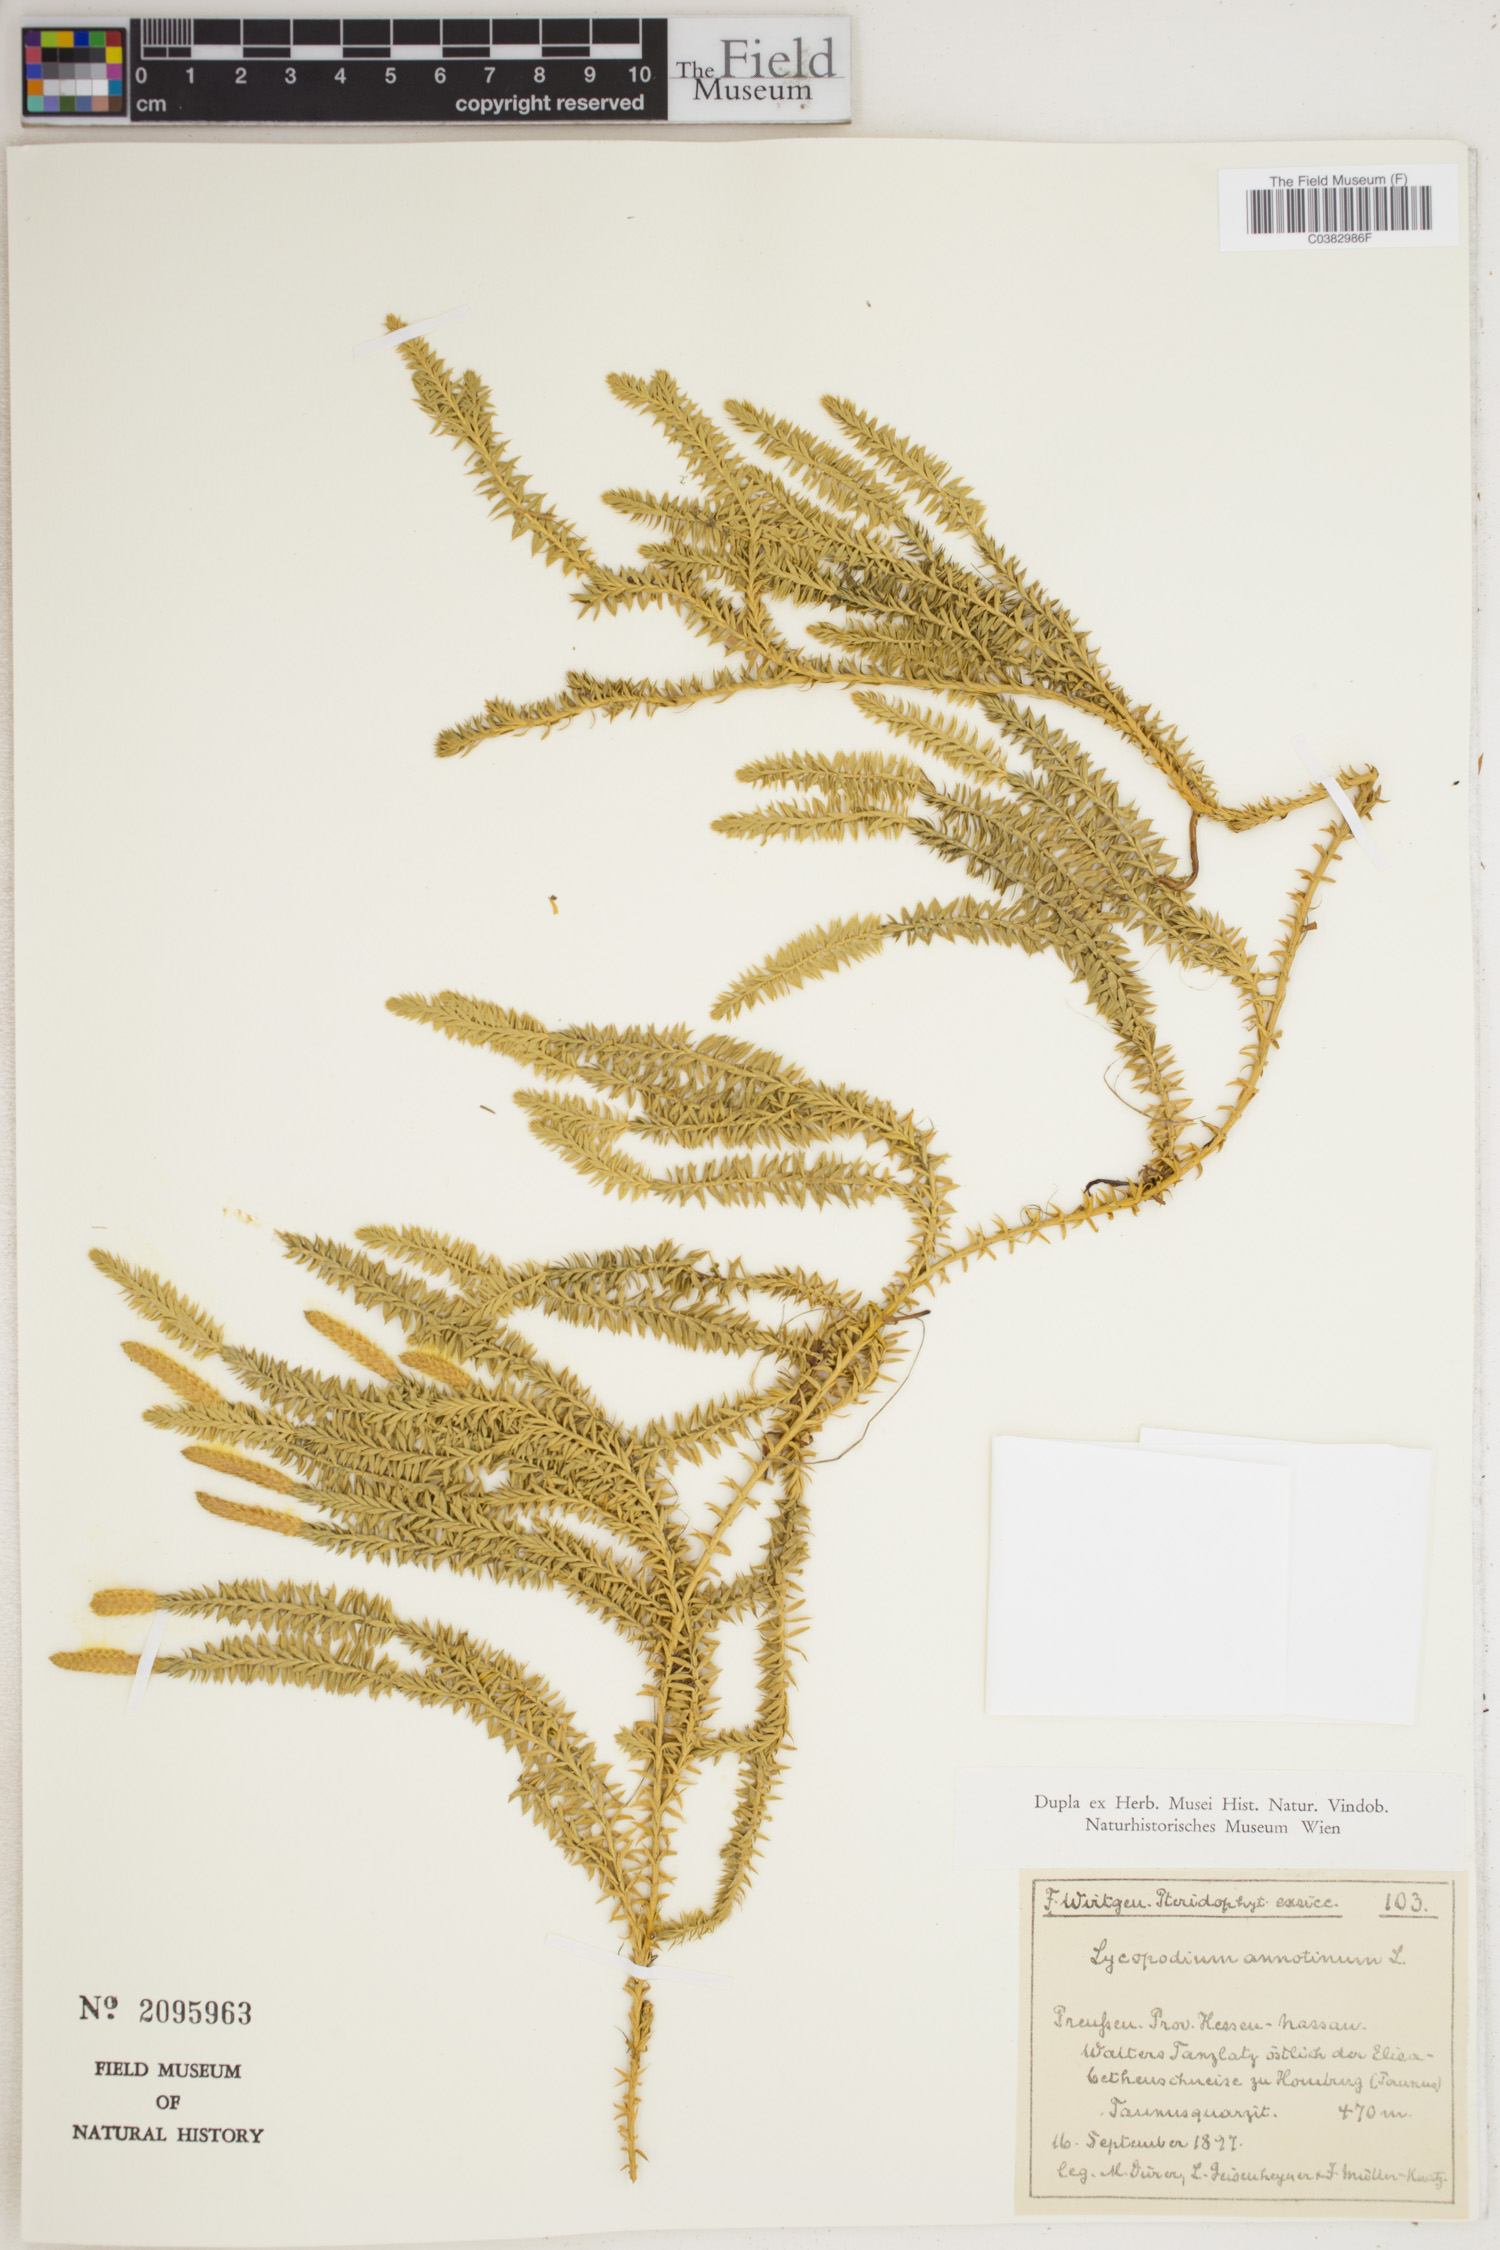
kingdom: Plantae
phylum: Tracheophyta
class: Lycopodiopsida
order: Lycopodiales
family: Lycopodiaceae
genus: Spinulum
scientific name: Spinulum annotinum
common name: Interrupted club-moss
